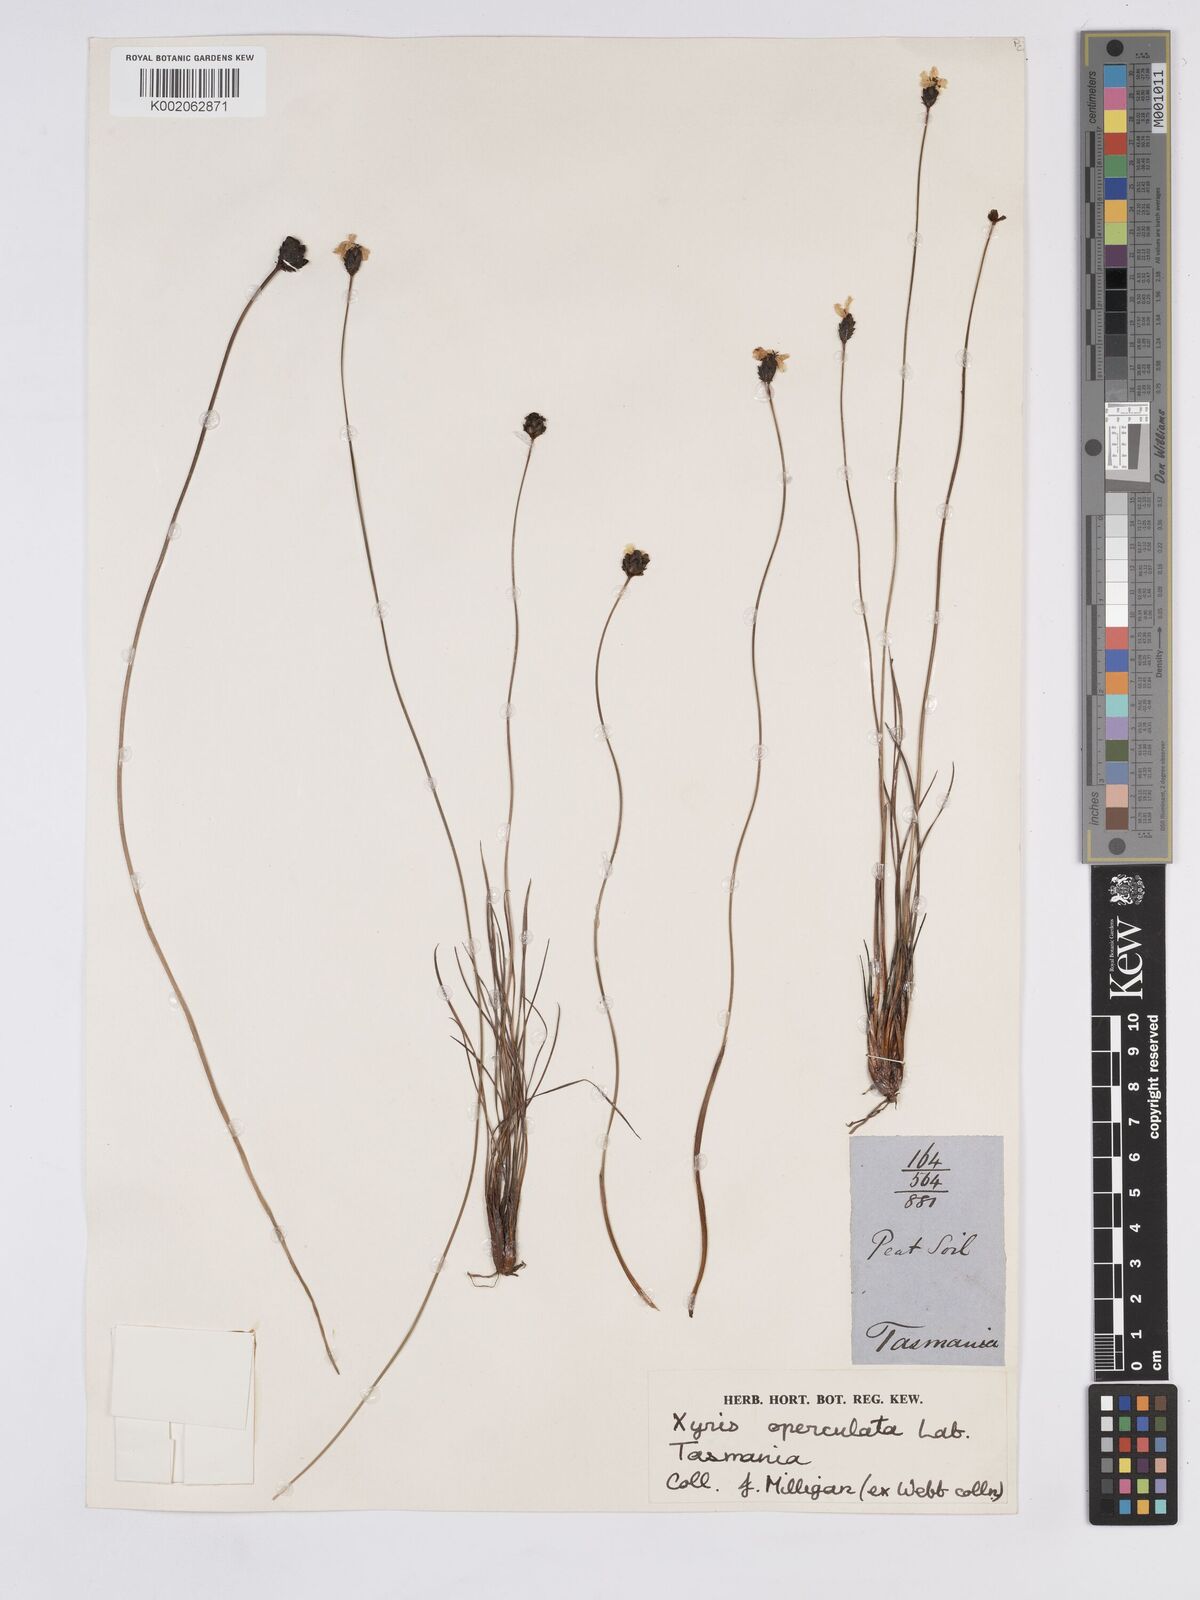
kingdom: Plantae
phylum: Tracheophyta
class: Liliopsida
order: Poales
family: Xyridaceae
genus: Xyris
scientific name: Xyris operculata
